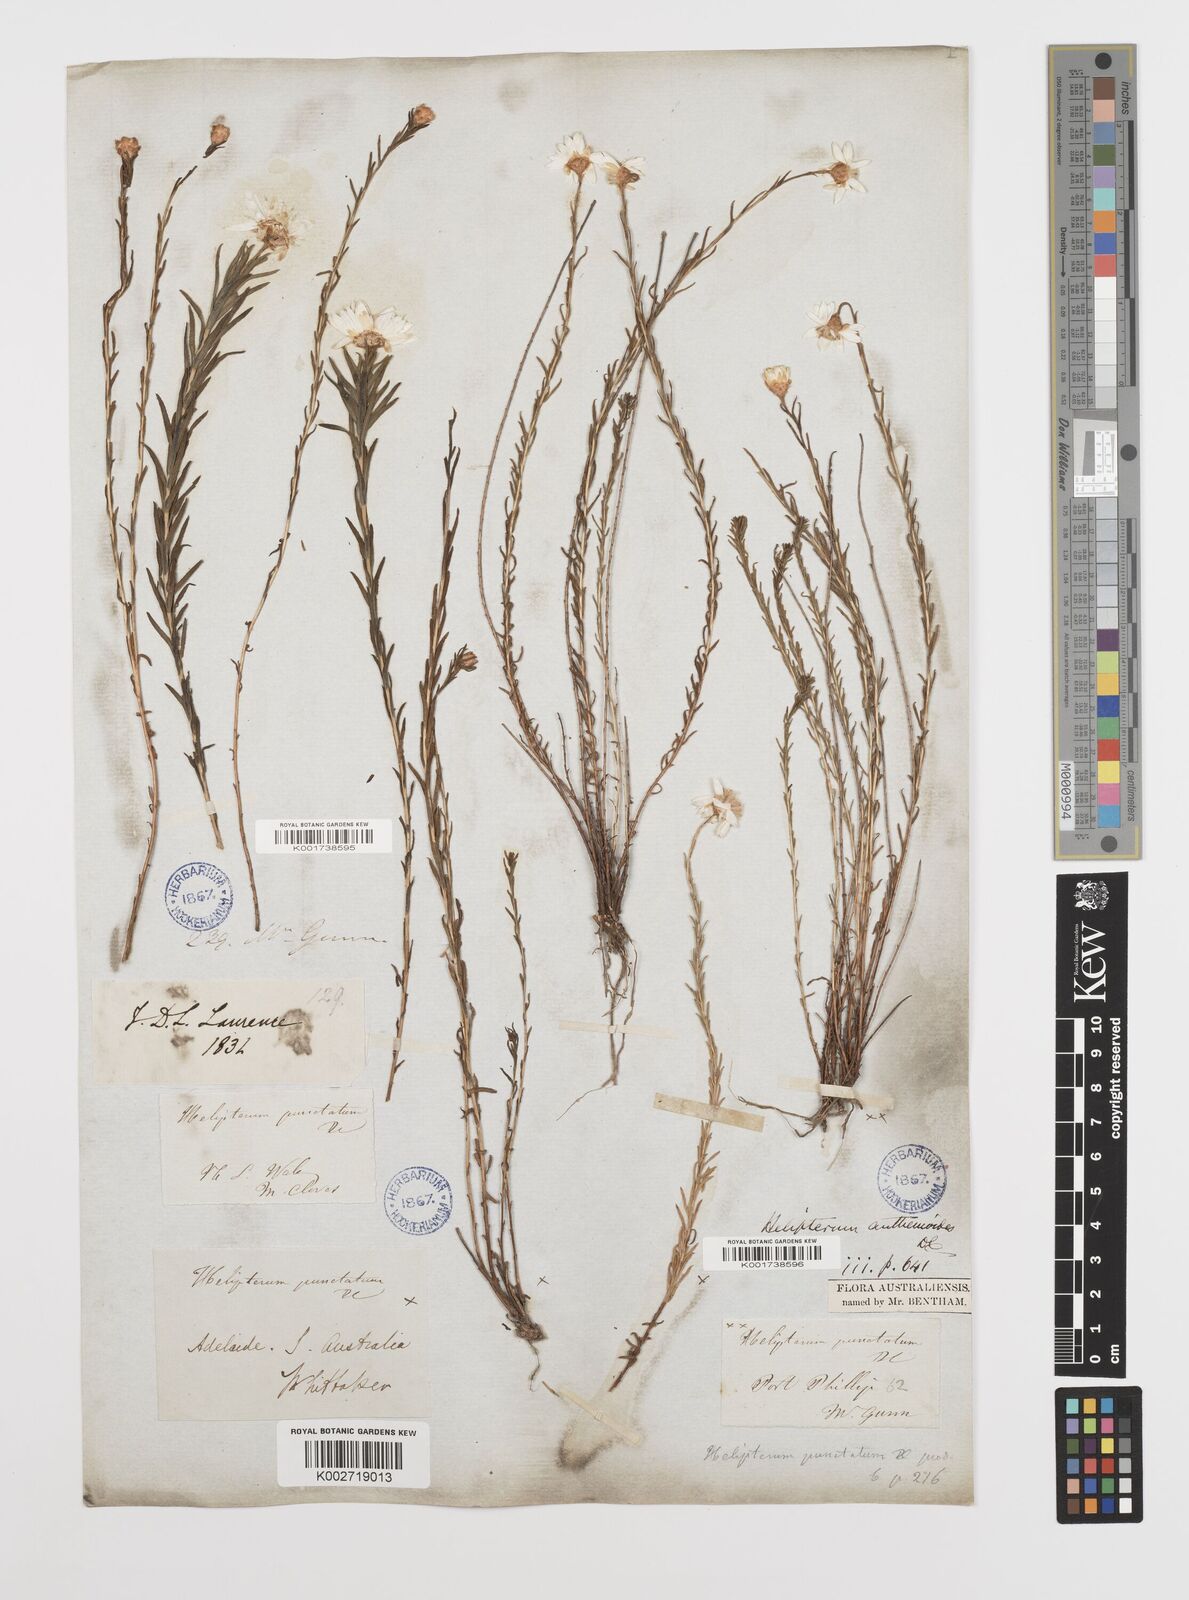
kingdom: Plantae
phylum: Tracheophyta
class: Magnoliopsida
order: Asterales
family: Asteraceae
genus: Rhodanthe
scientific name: Rhodanthe anthemoides
